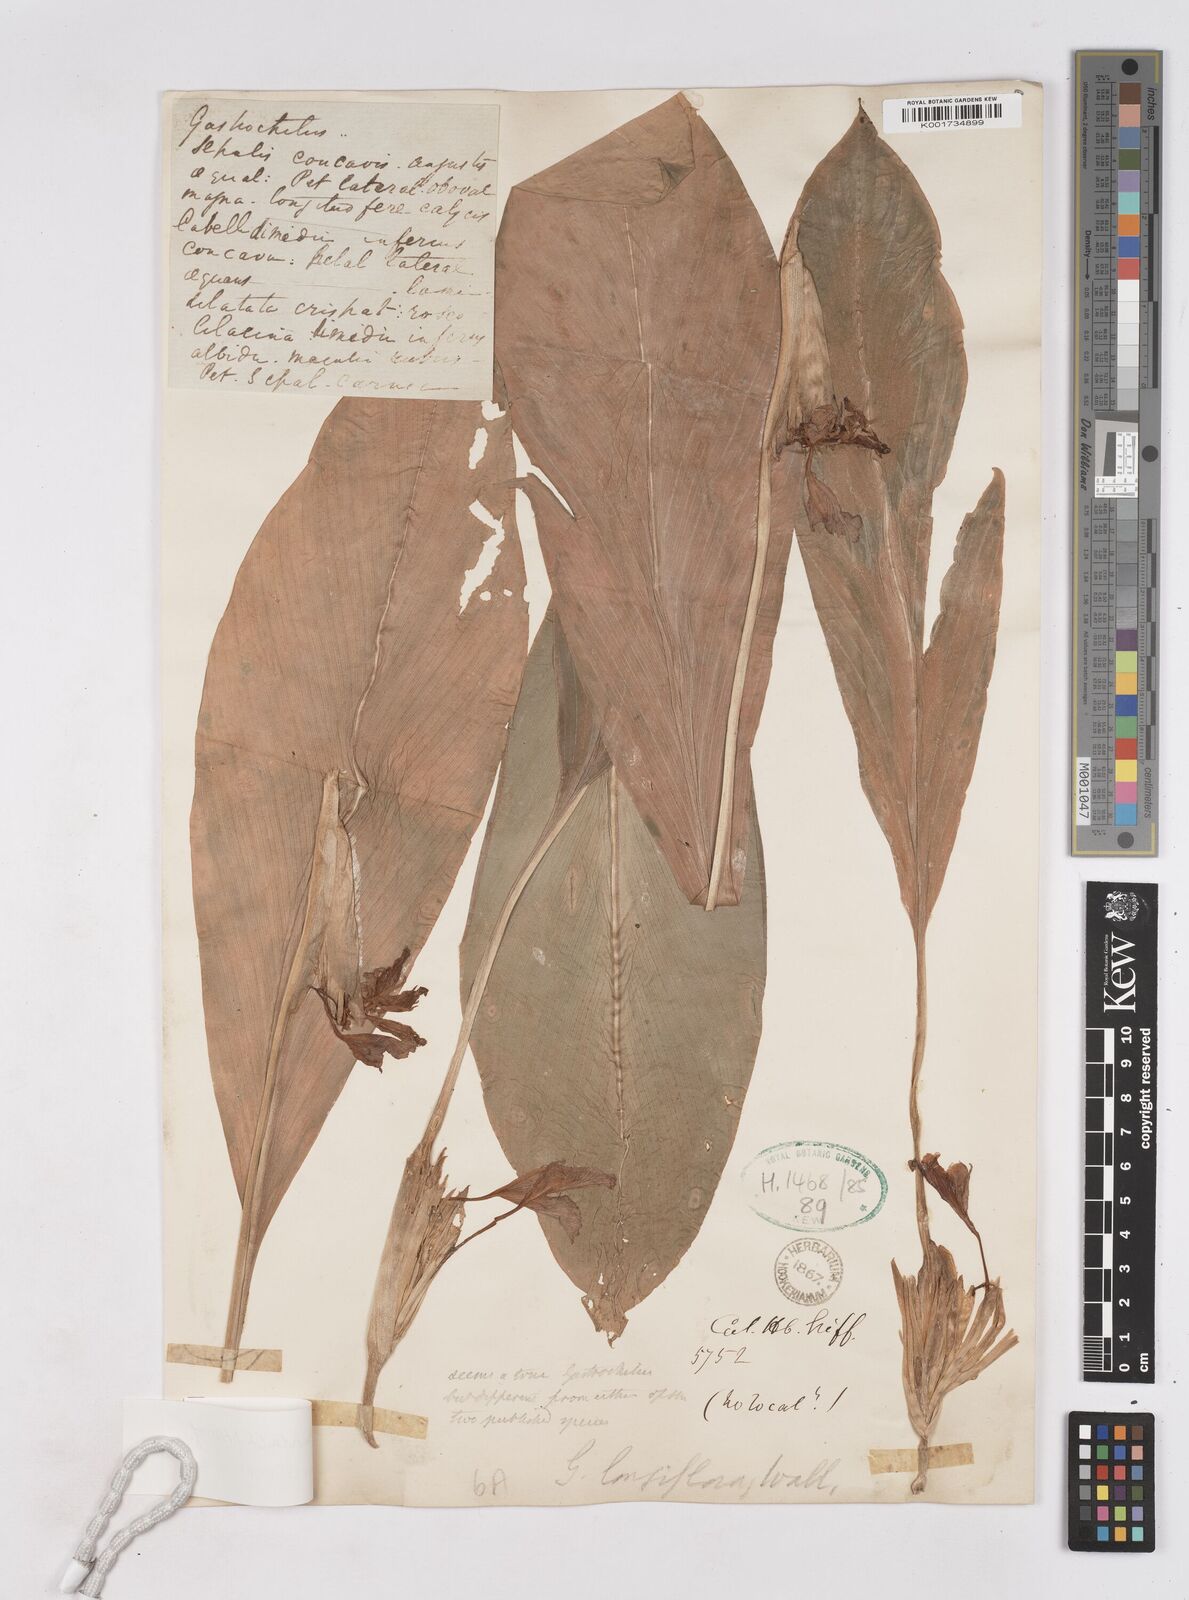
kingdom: Plantae
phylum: Tracheophyta
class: Liliopsida
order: Zingiberales
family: Zingiberaceae
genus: Boesenbergia
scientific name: Boesenbergia rotunda
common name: Chinese ginger
